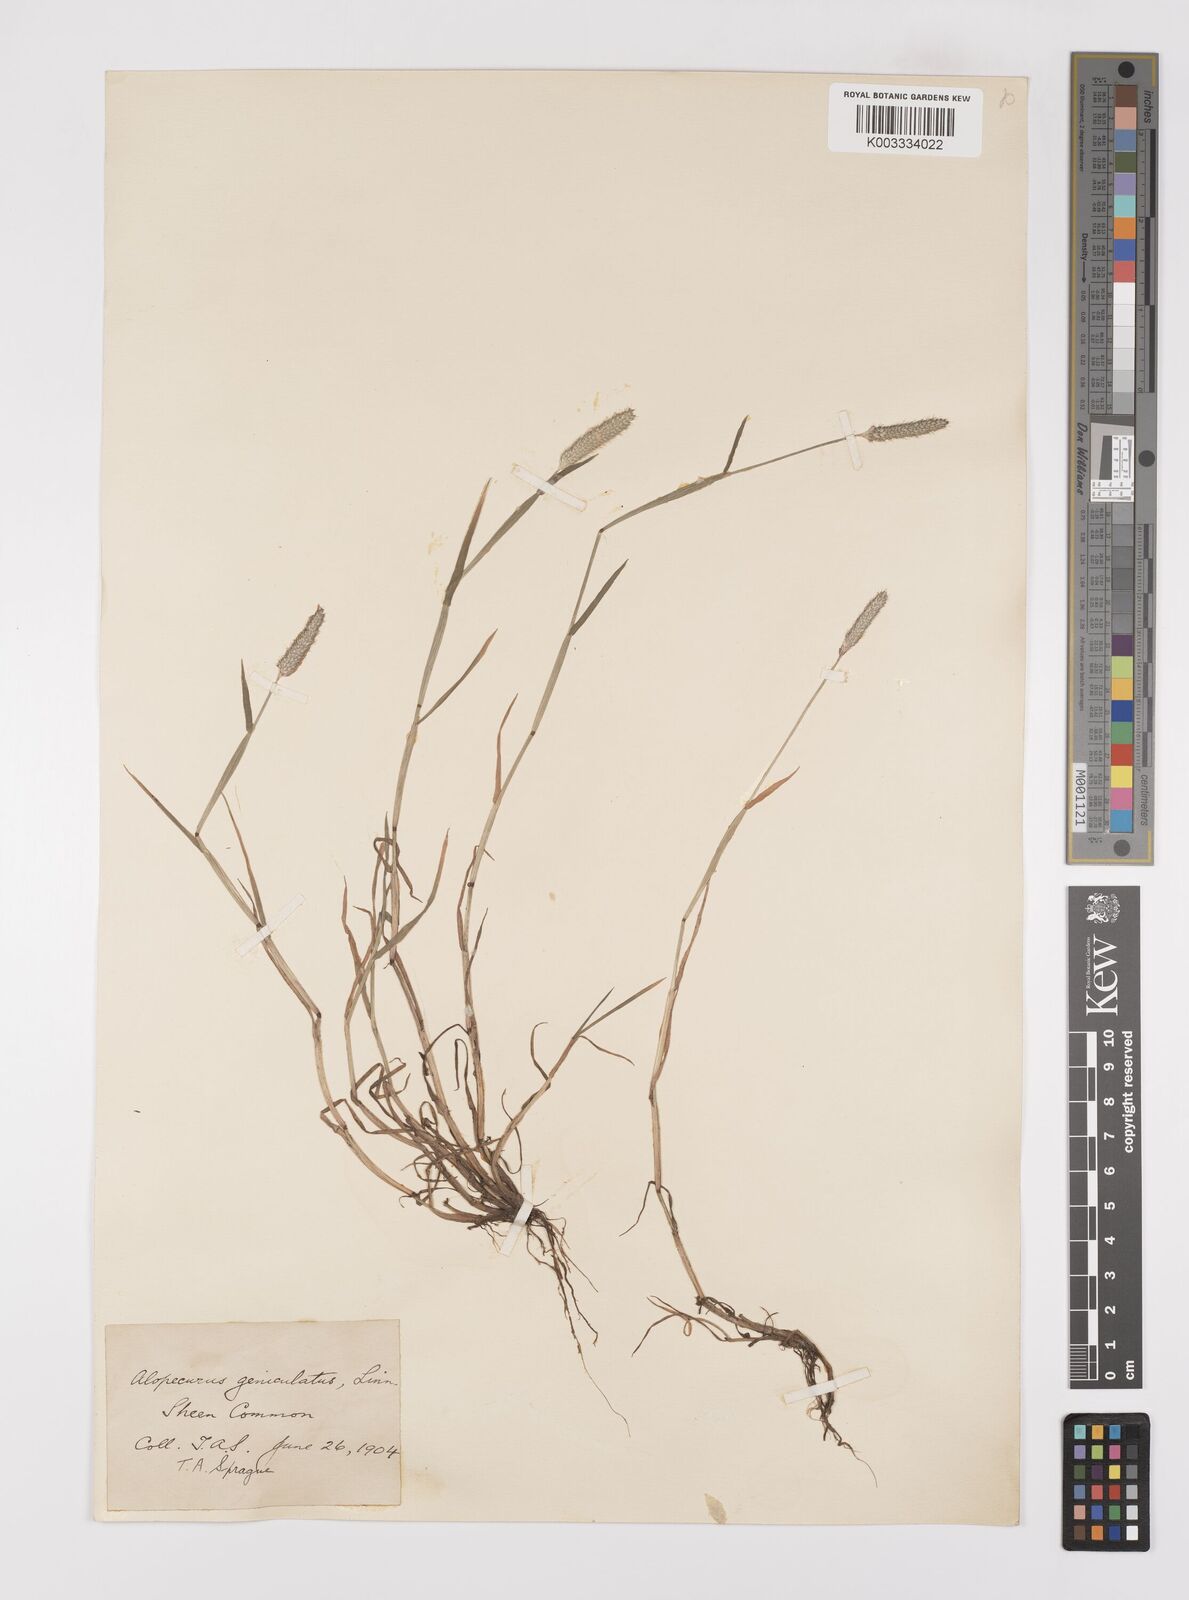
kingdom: Plantae
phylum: Tracheophyta
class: Liliopsida
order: Poales
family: Poaceae
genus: Alopecurus
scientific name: Alopecurus geniculatus
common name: Water foxtail
